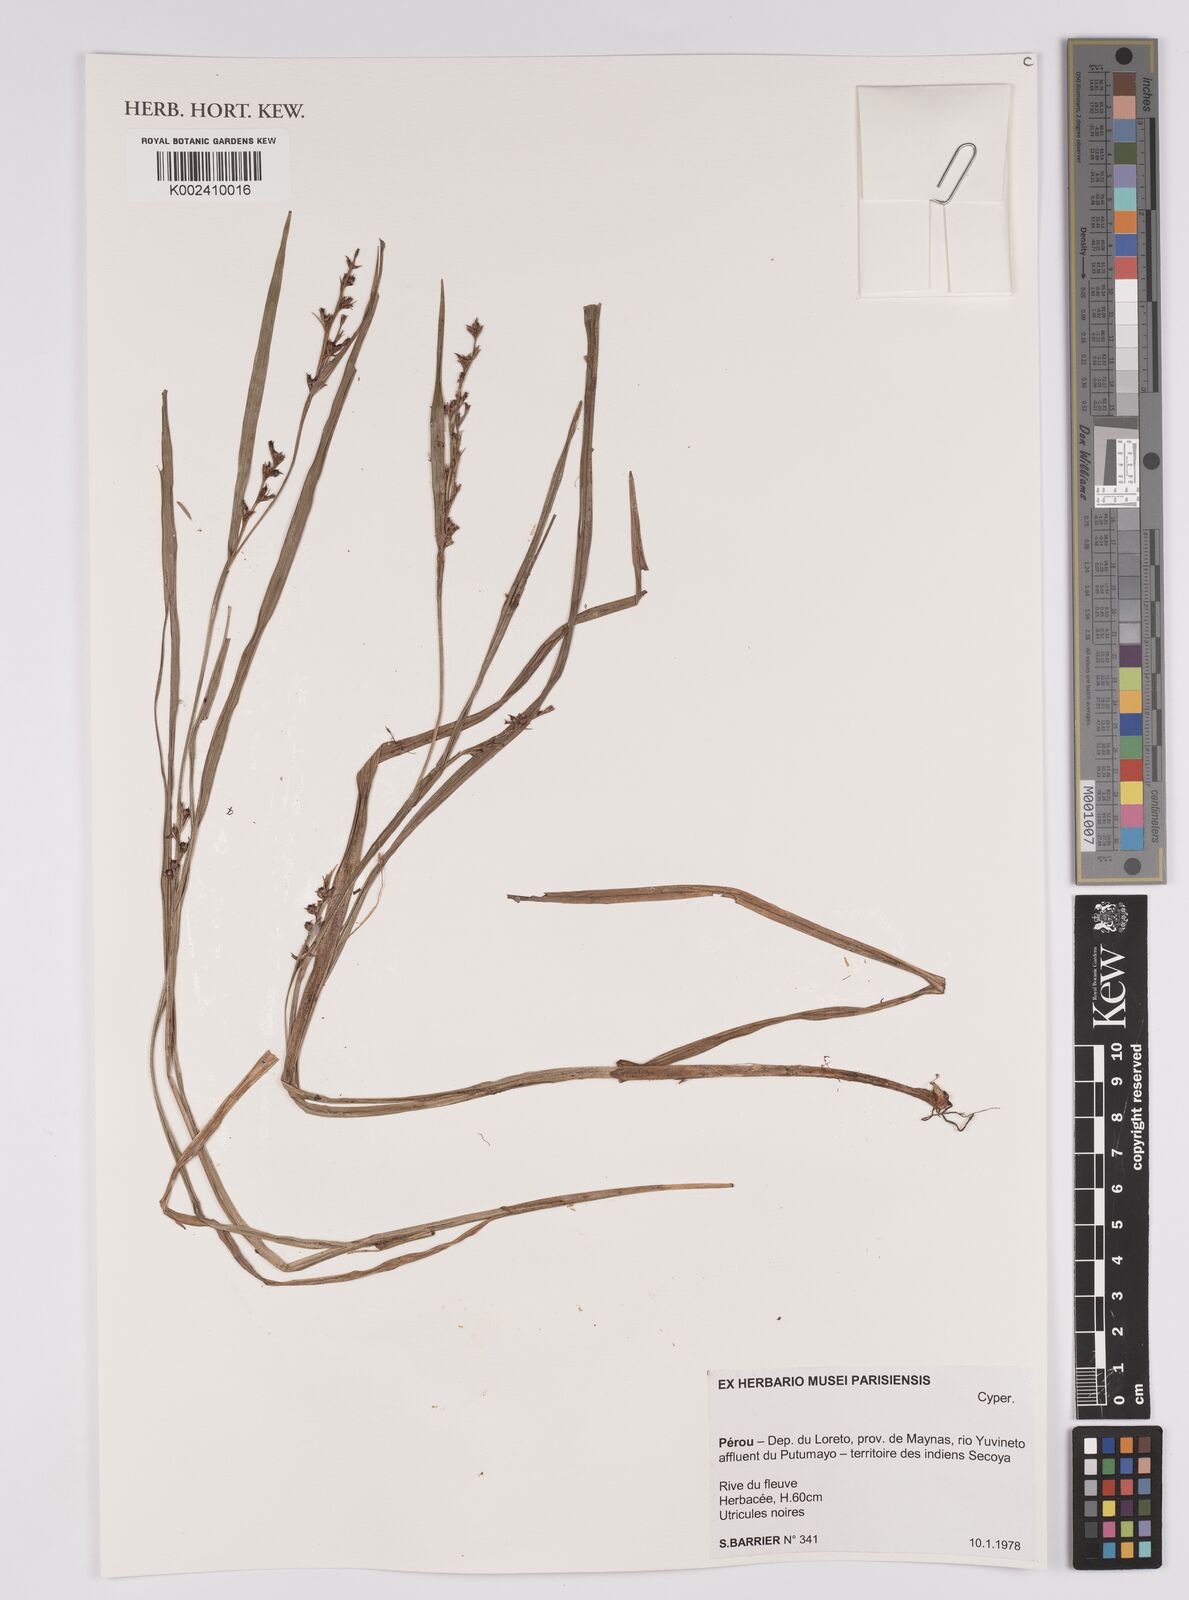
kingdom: Plantae
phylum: Tracheophyta
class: Liliopsida
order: Poales
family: Cyperaceae
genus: Scleria
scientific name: Scleria
